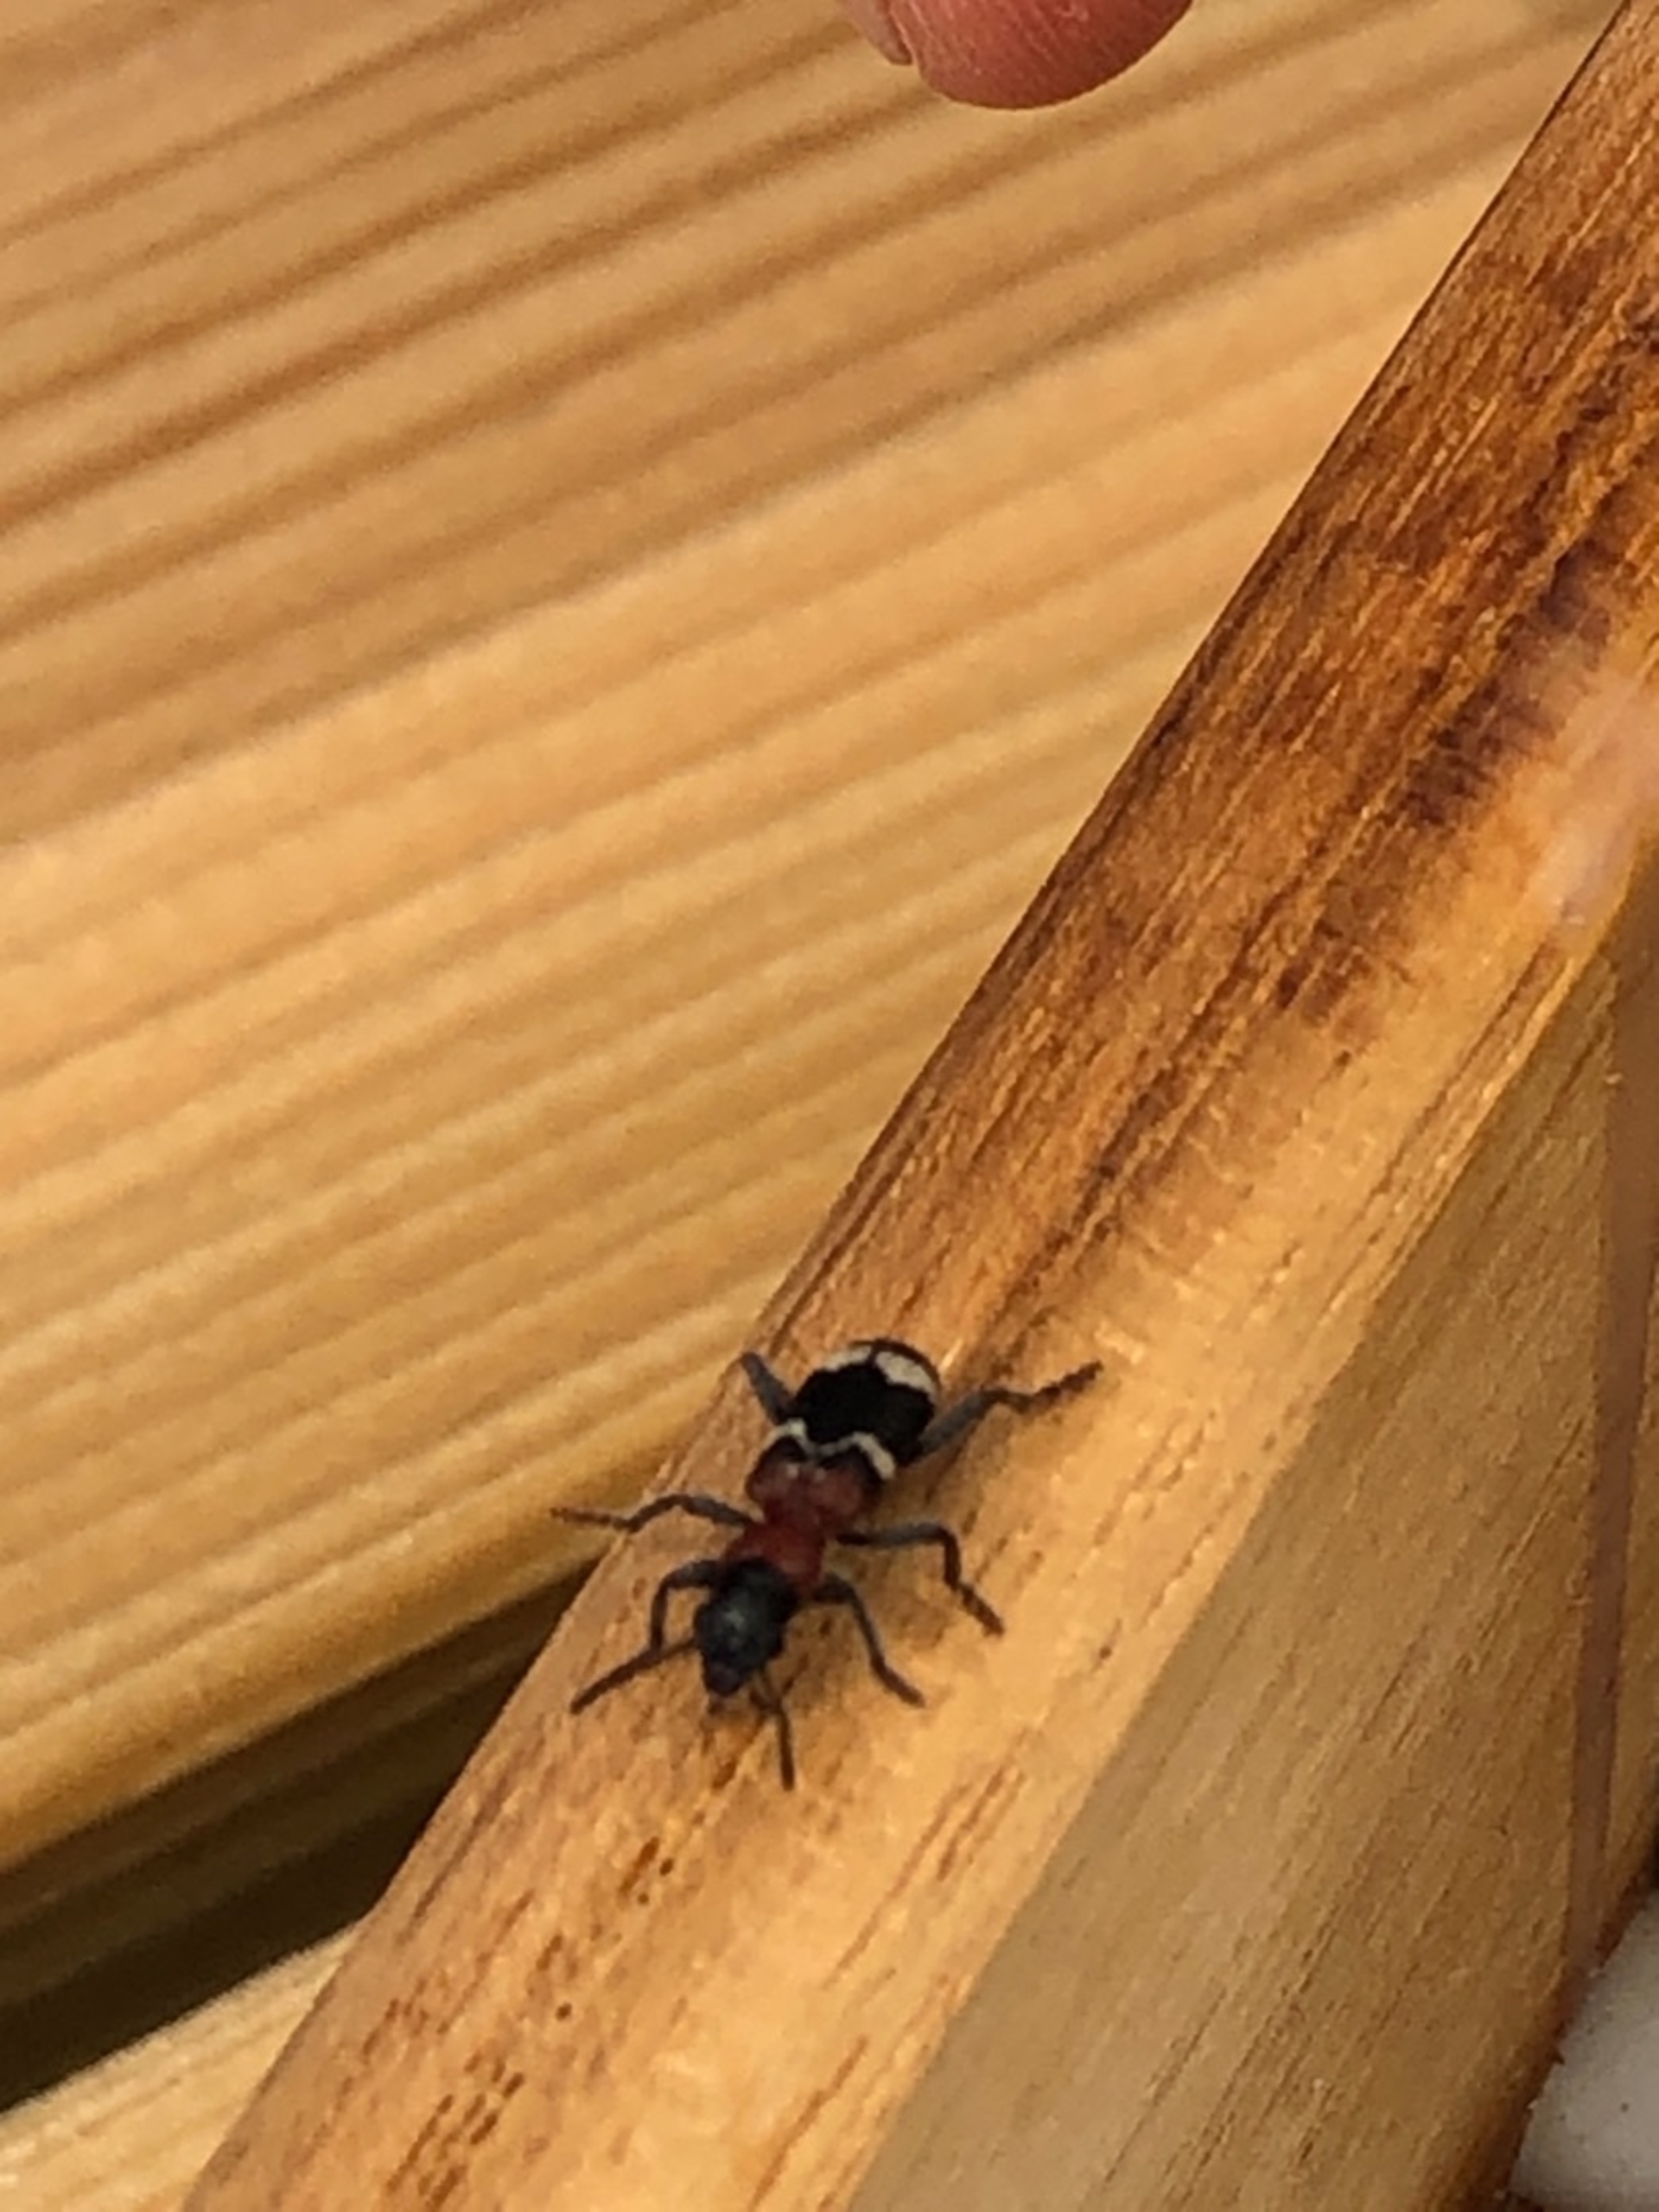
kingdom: Animalia
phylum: Arthropoda
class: Insecta
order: Coleoptera
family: Cleridae
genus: Thanasimus
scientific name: Thanasimus formicarius
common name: Myrebille
